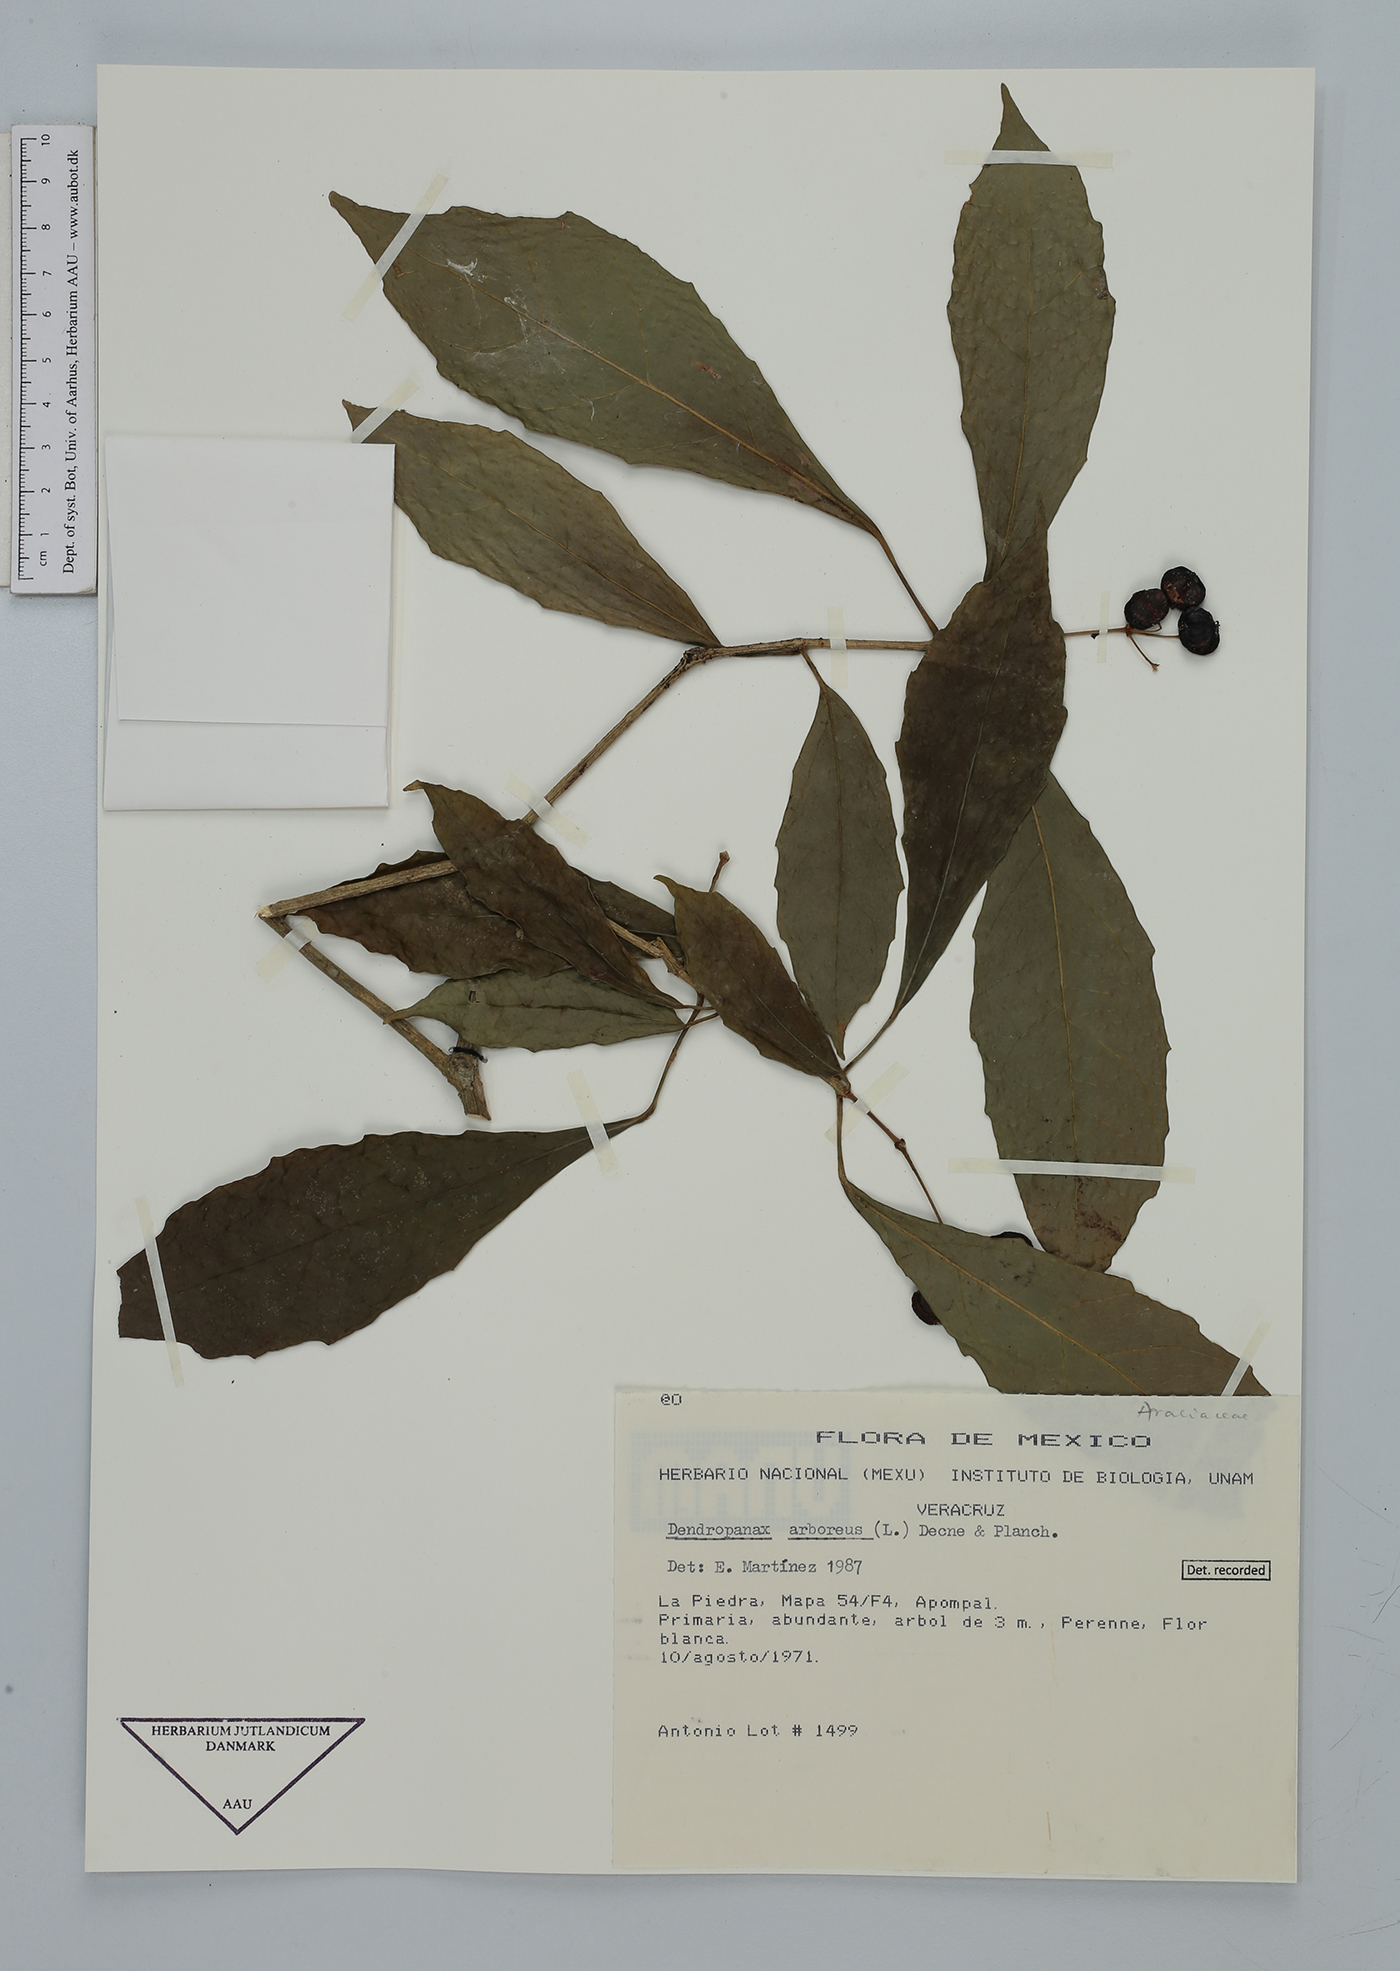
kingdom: Plantae
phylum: Tracheophyta
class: Magnoliopsida
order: Apiales
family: Araliaceae
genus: Dendropanax
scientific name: Dendropanax arboreus
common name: Potato-wood
